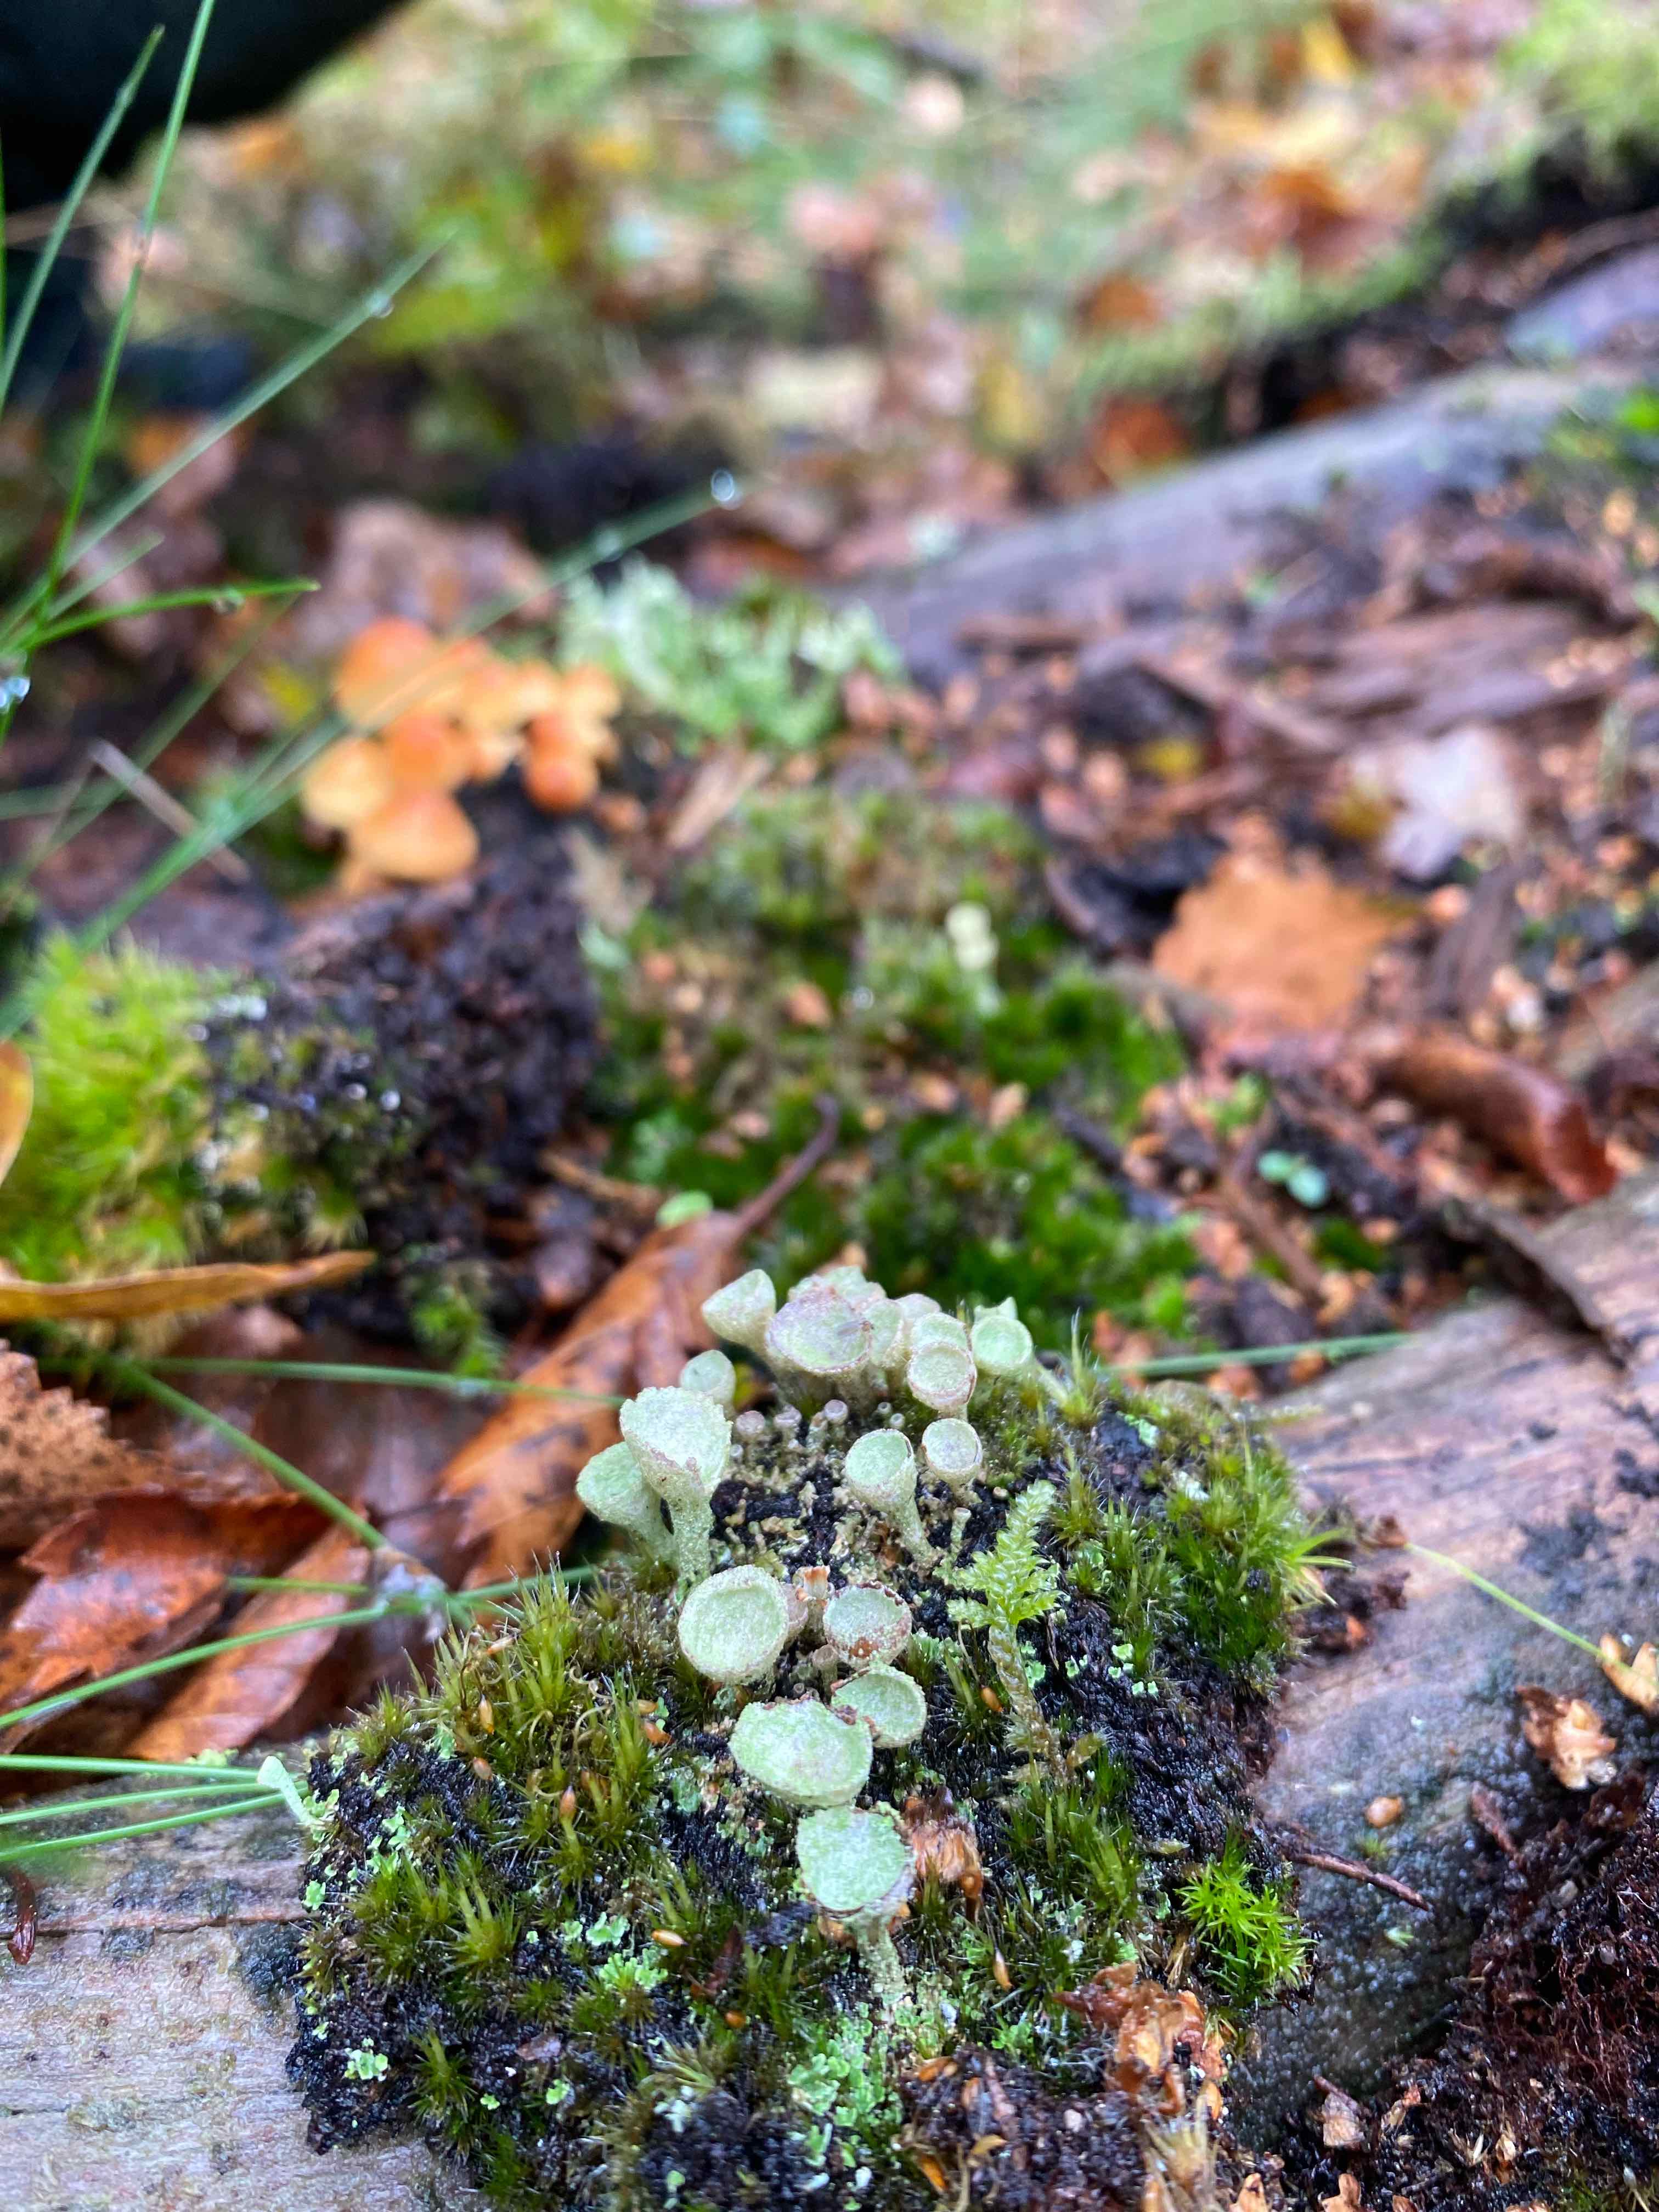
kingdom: Fungi
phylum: Ascomycota
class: Lecanoromycetes
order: Lecanorales
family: Cladoniaceae
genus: Cladonia
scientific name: Cladonia
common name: brungrøn bægerlav
